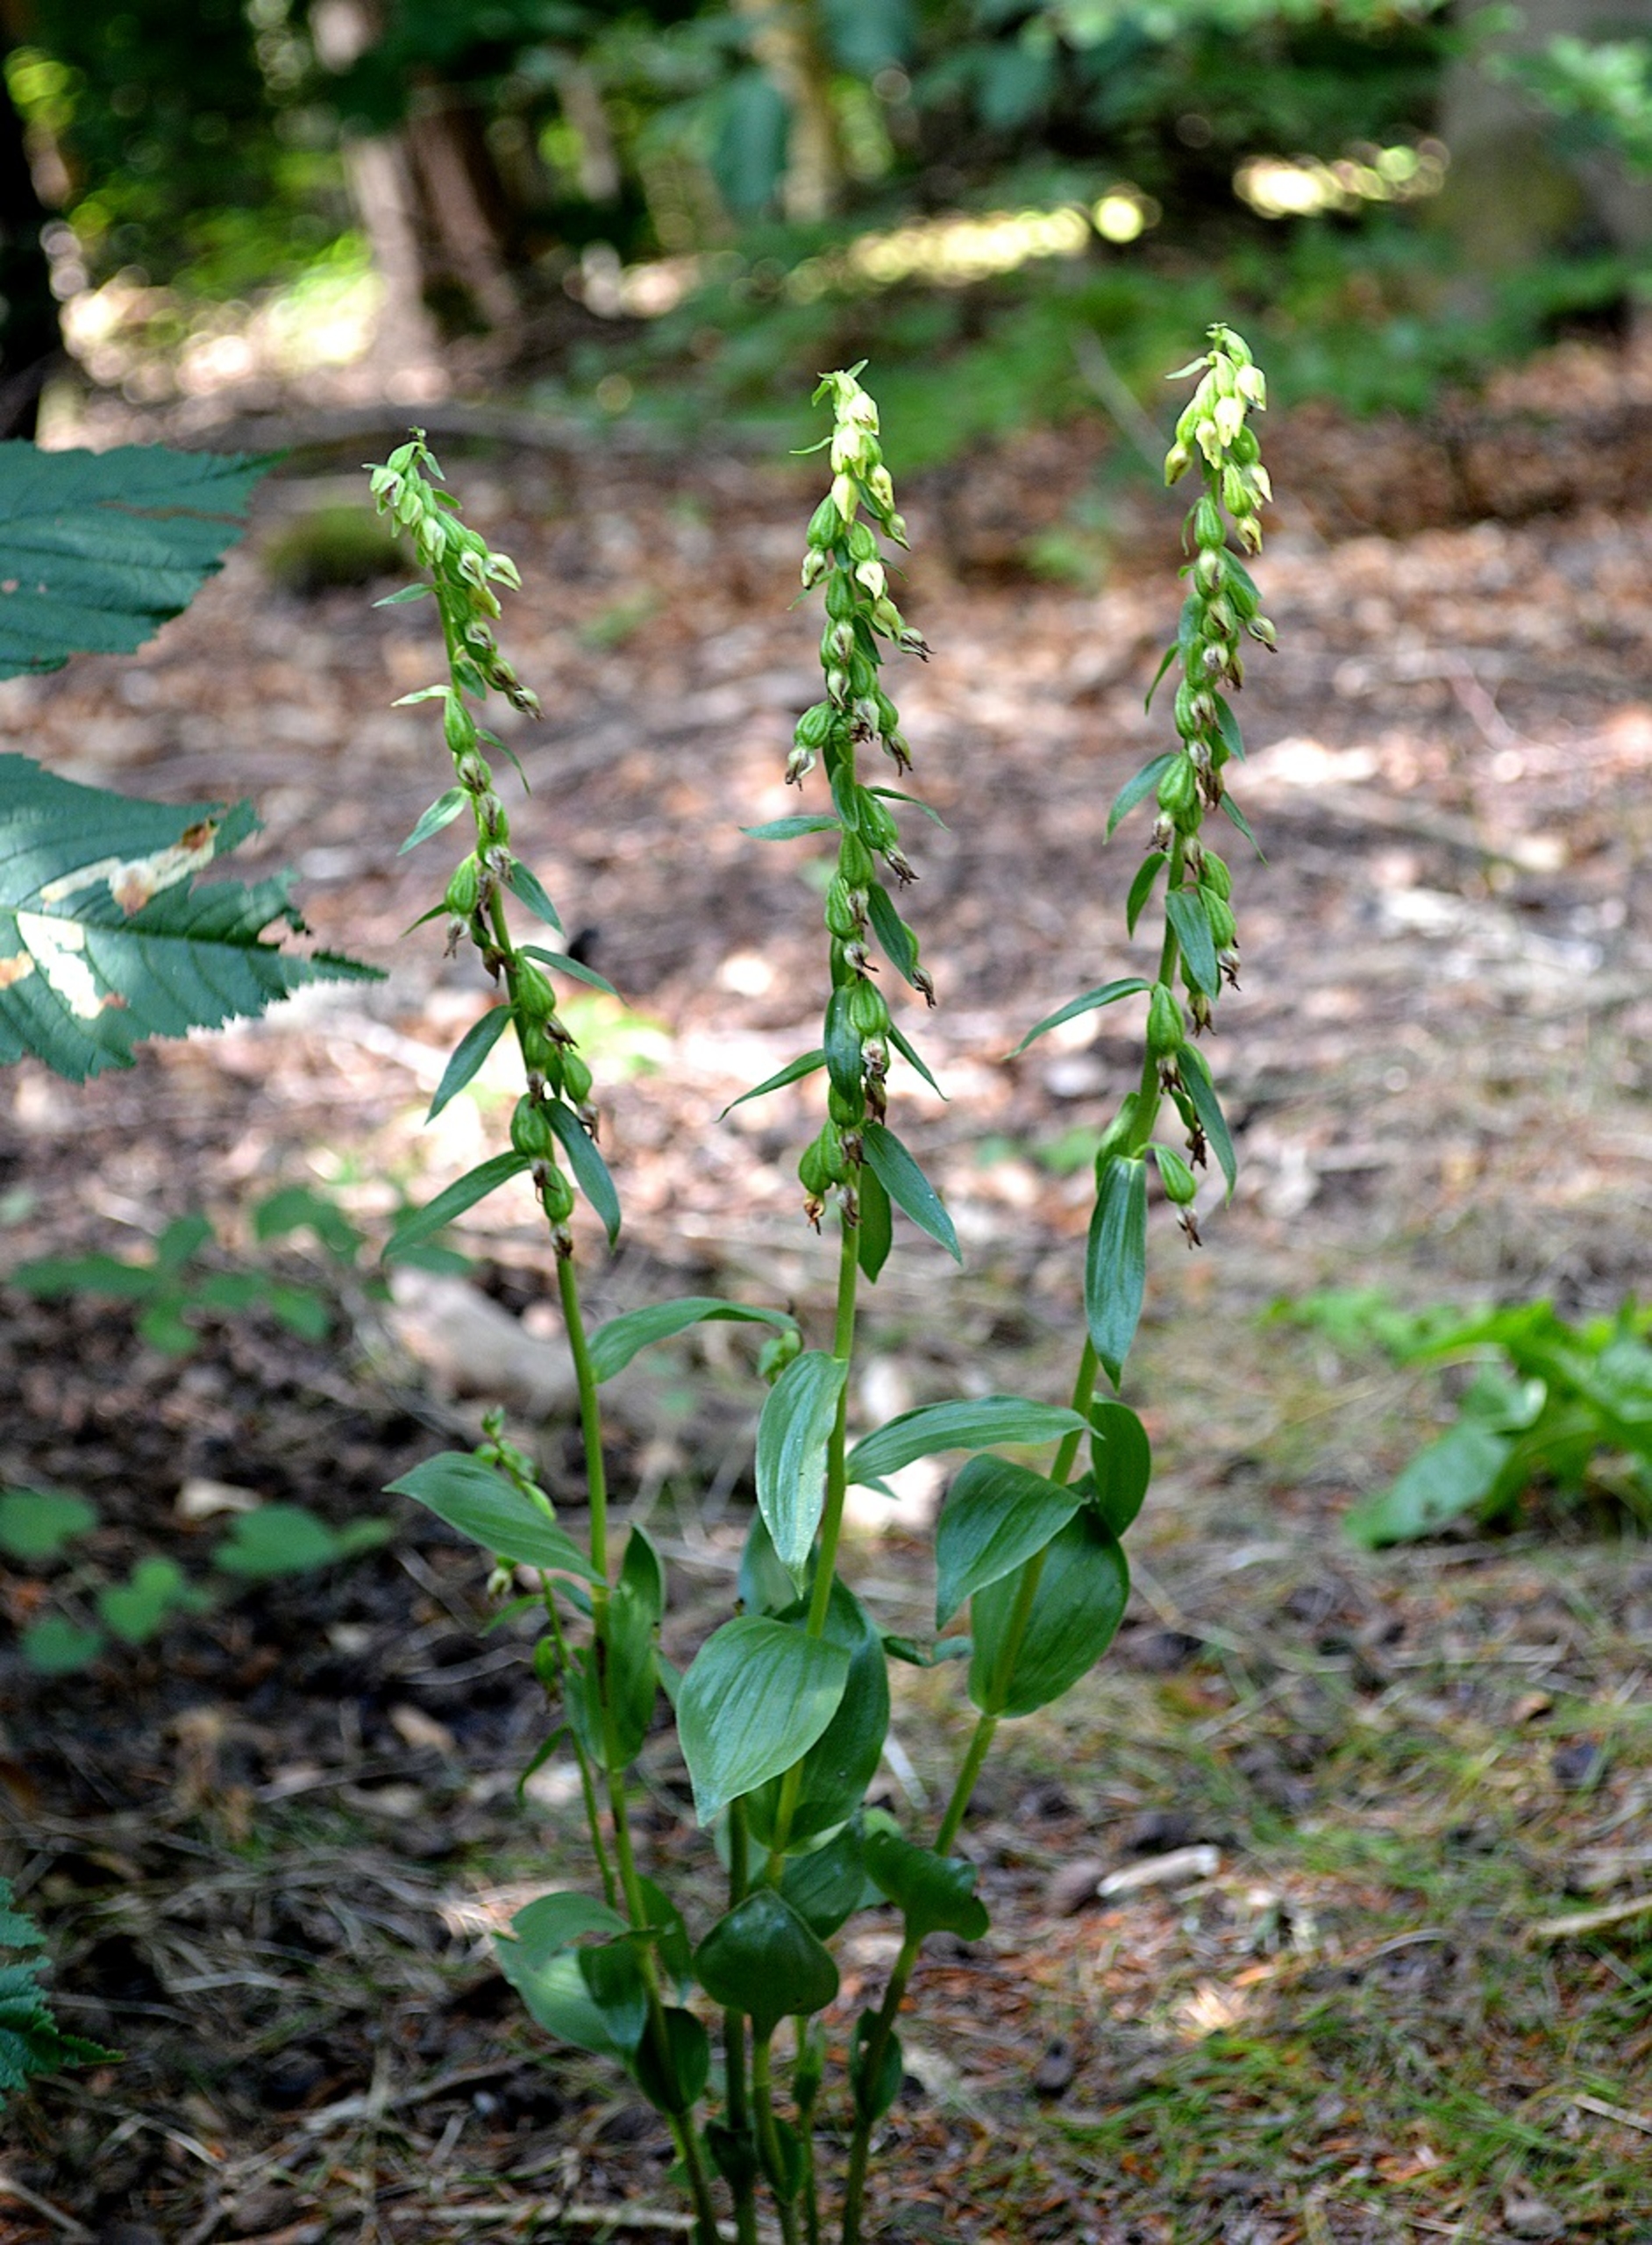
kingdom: Plantae
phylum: Tracheophyta
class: Liliopsida
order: Asparagales
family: Orchidaceae
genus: Epipactis
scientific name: Epipactis phyllanthes
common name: Nikkende hullæbe
